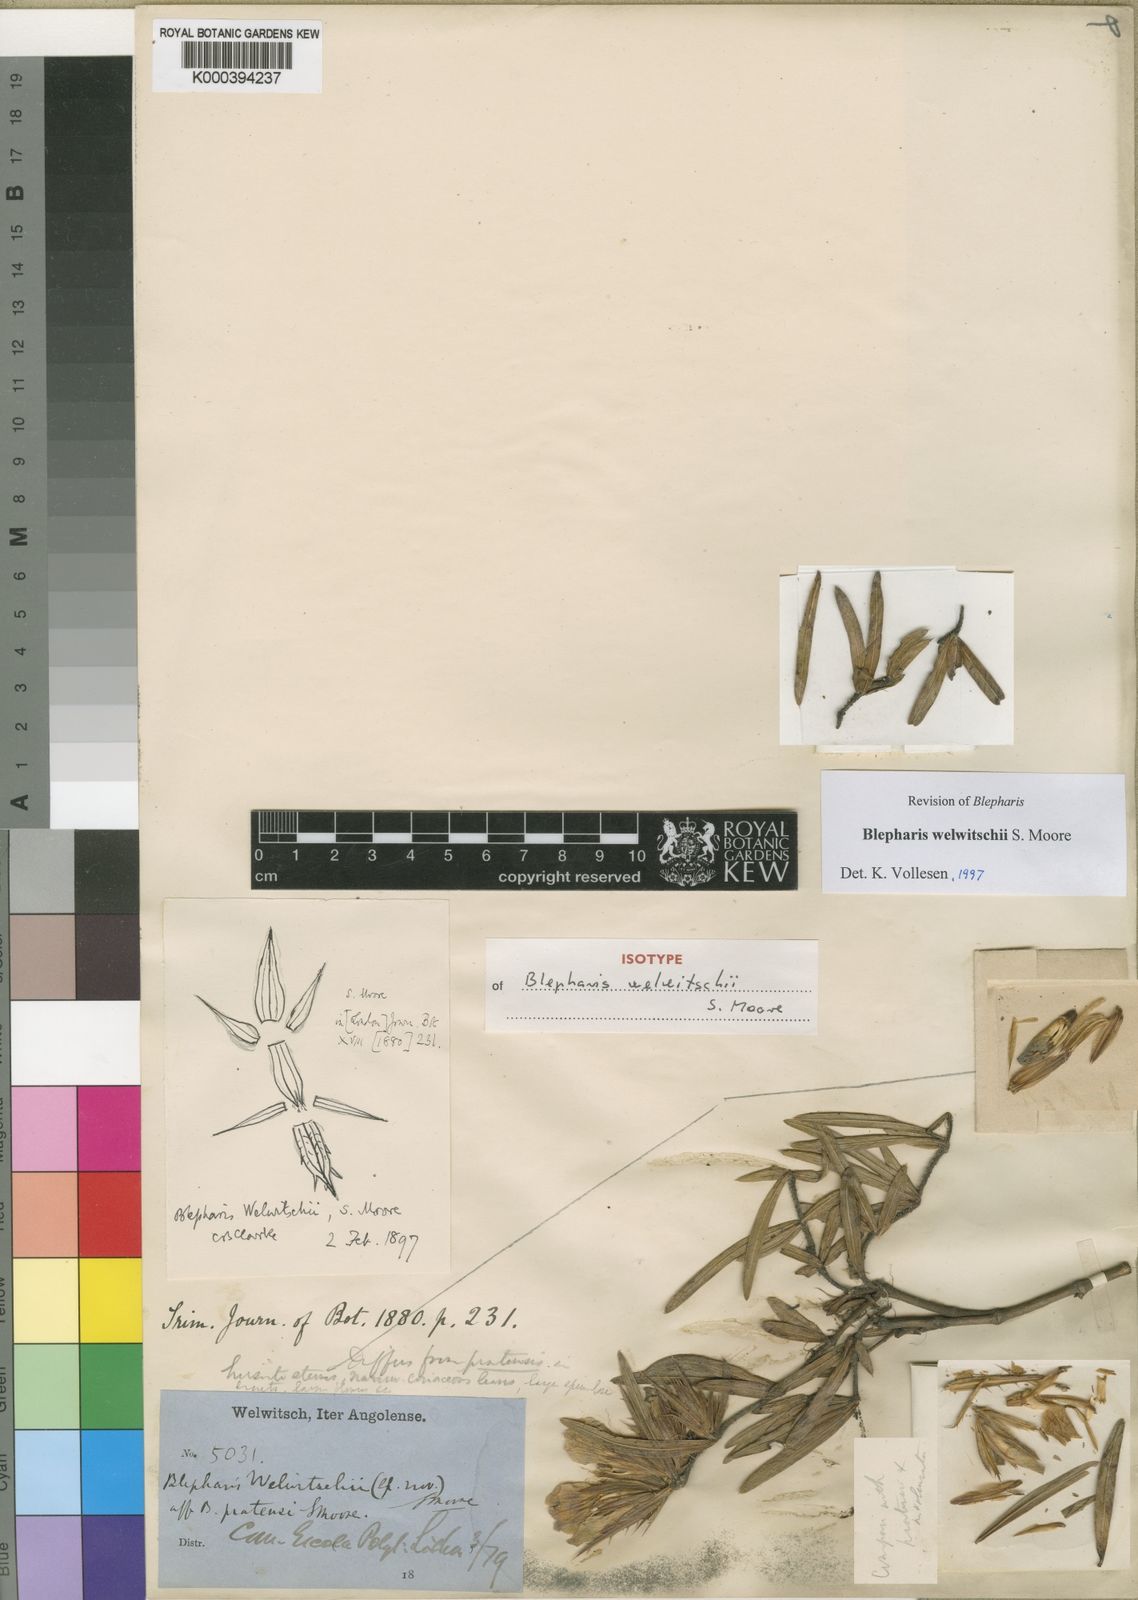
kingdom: Plantae
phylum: Tracheophyta
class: Magnoliopsida
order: Lamiales
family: Acanthaceae
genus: Blepharis
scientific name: Blepharis welwitschii
